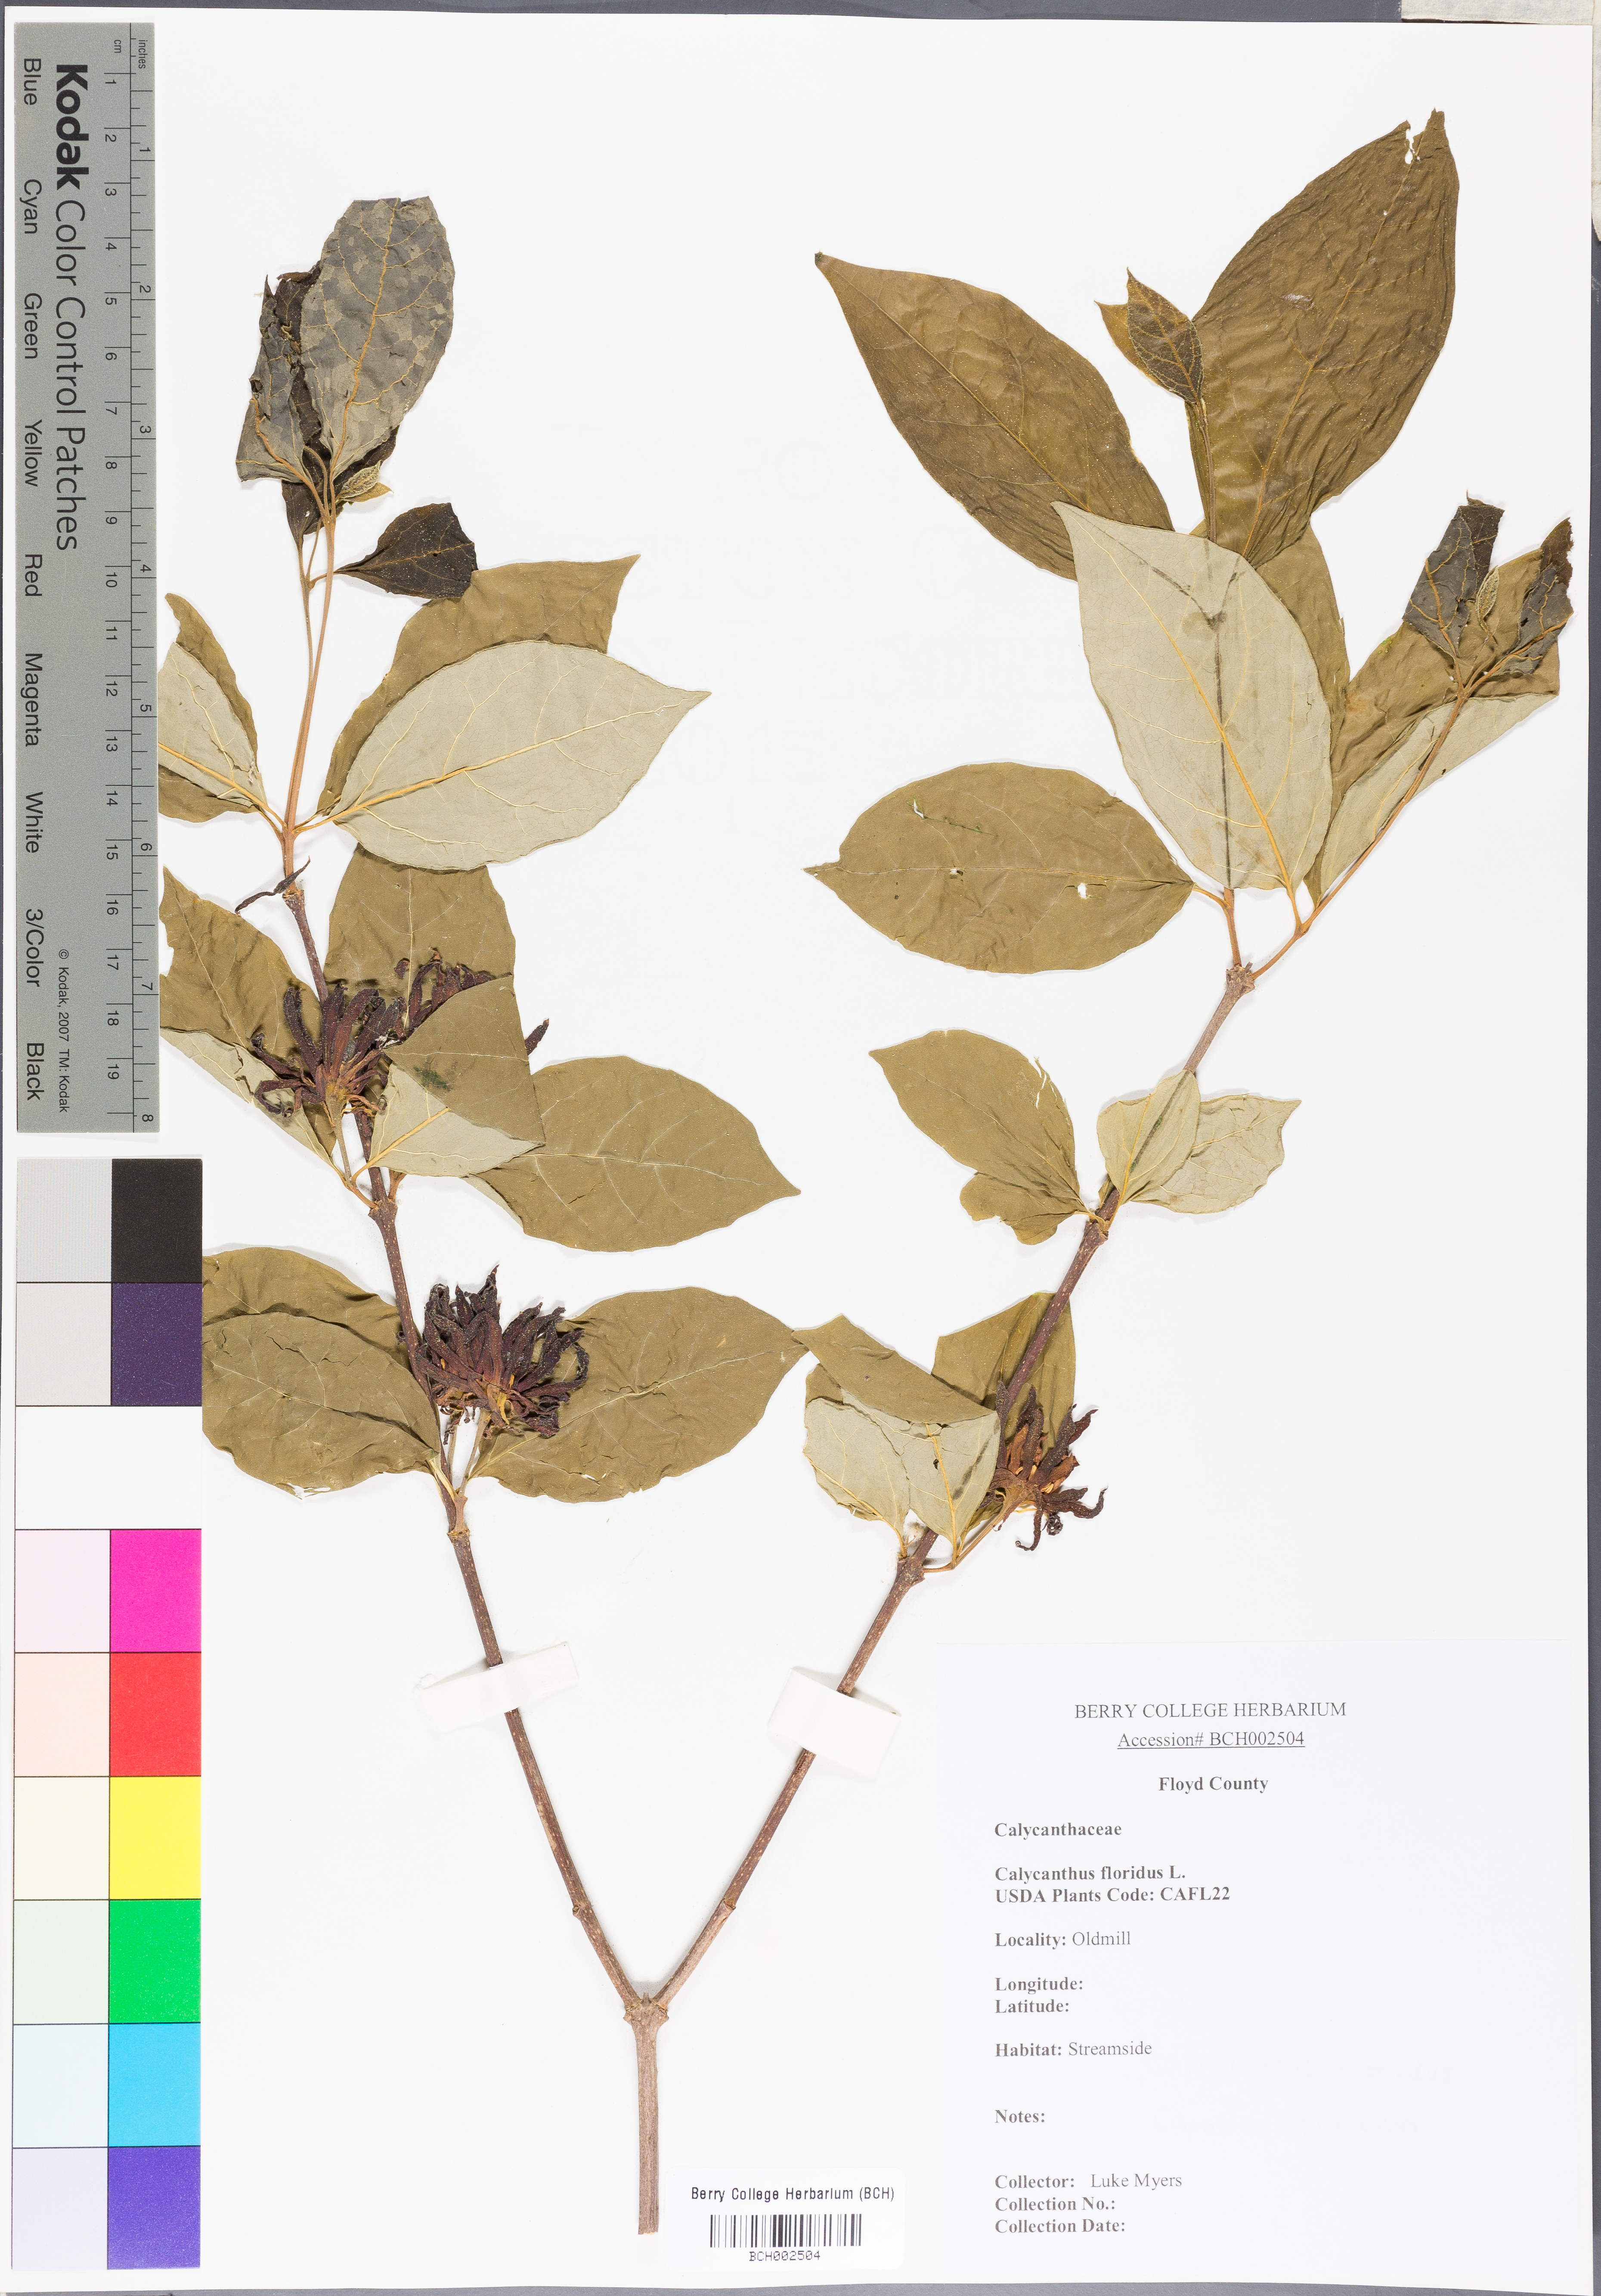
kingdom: Plantae
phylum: Tracheophyta
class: Magnoliopsida
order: Laurales
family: Calycanthaceae
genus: Calycanthus
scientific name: Calycanthus floridus
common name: Carolina-allspice
